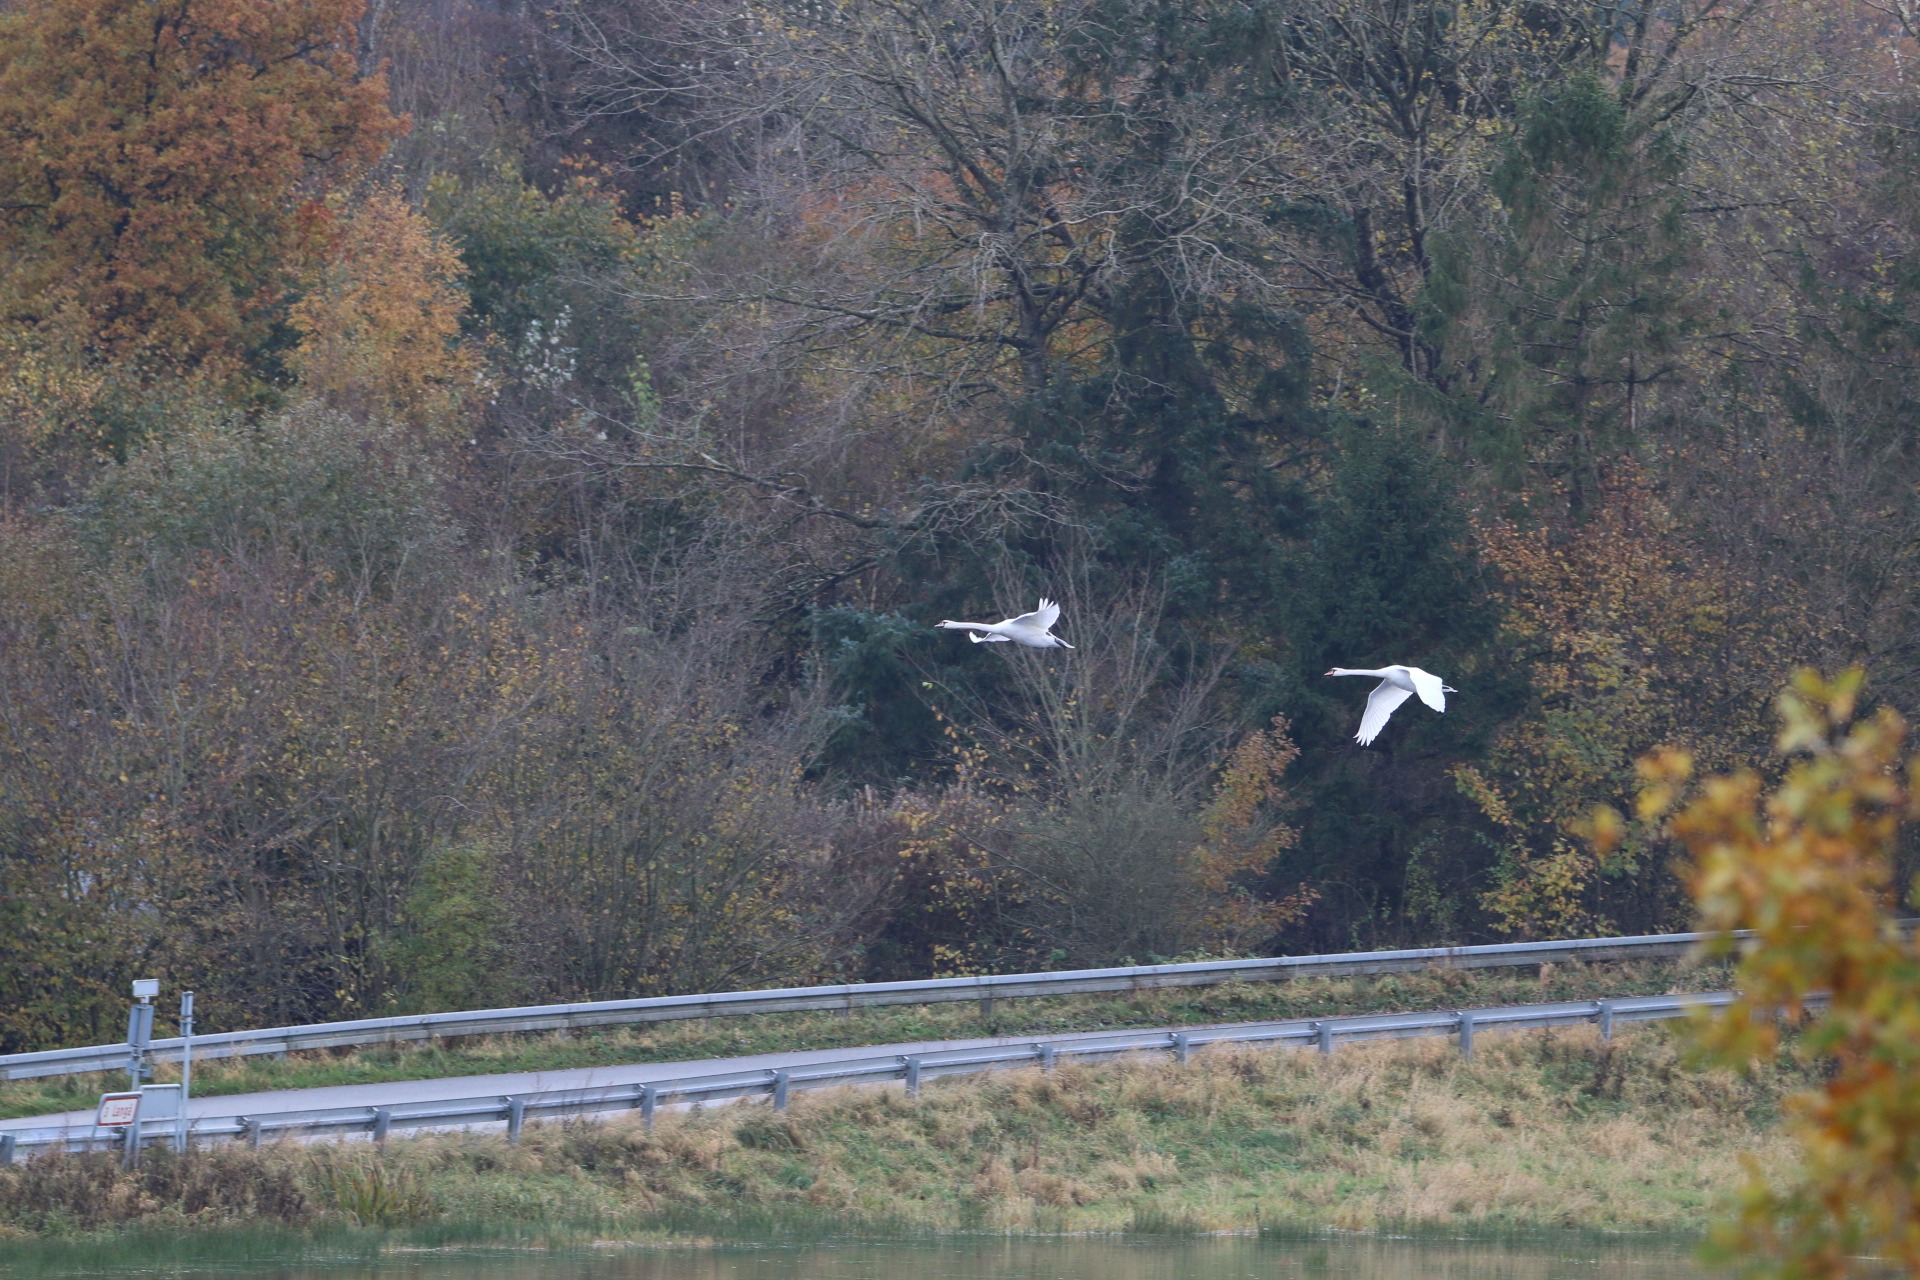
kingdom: Animalia
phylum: Chordata
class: Aves
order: Anseriformes
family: Anatidae
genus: Cygnus
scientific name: Cygnus olor
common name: Knopsvane
